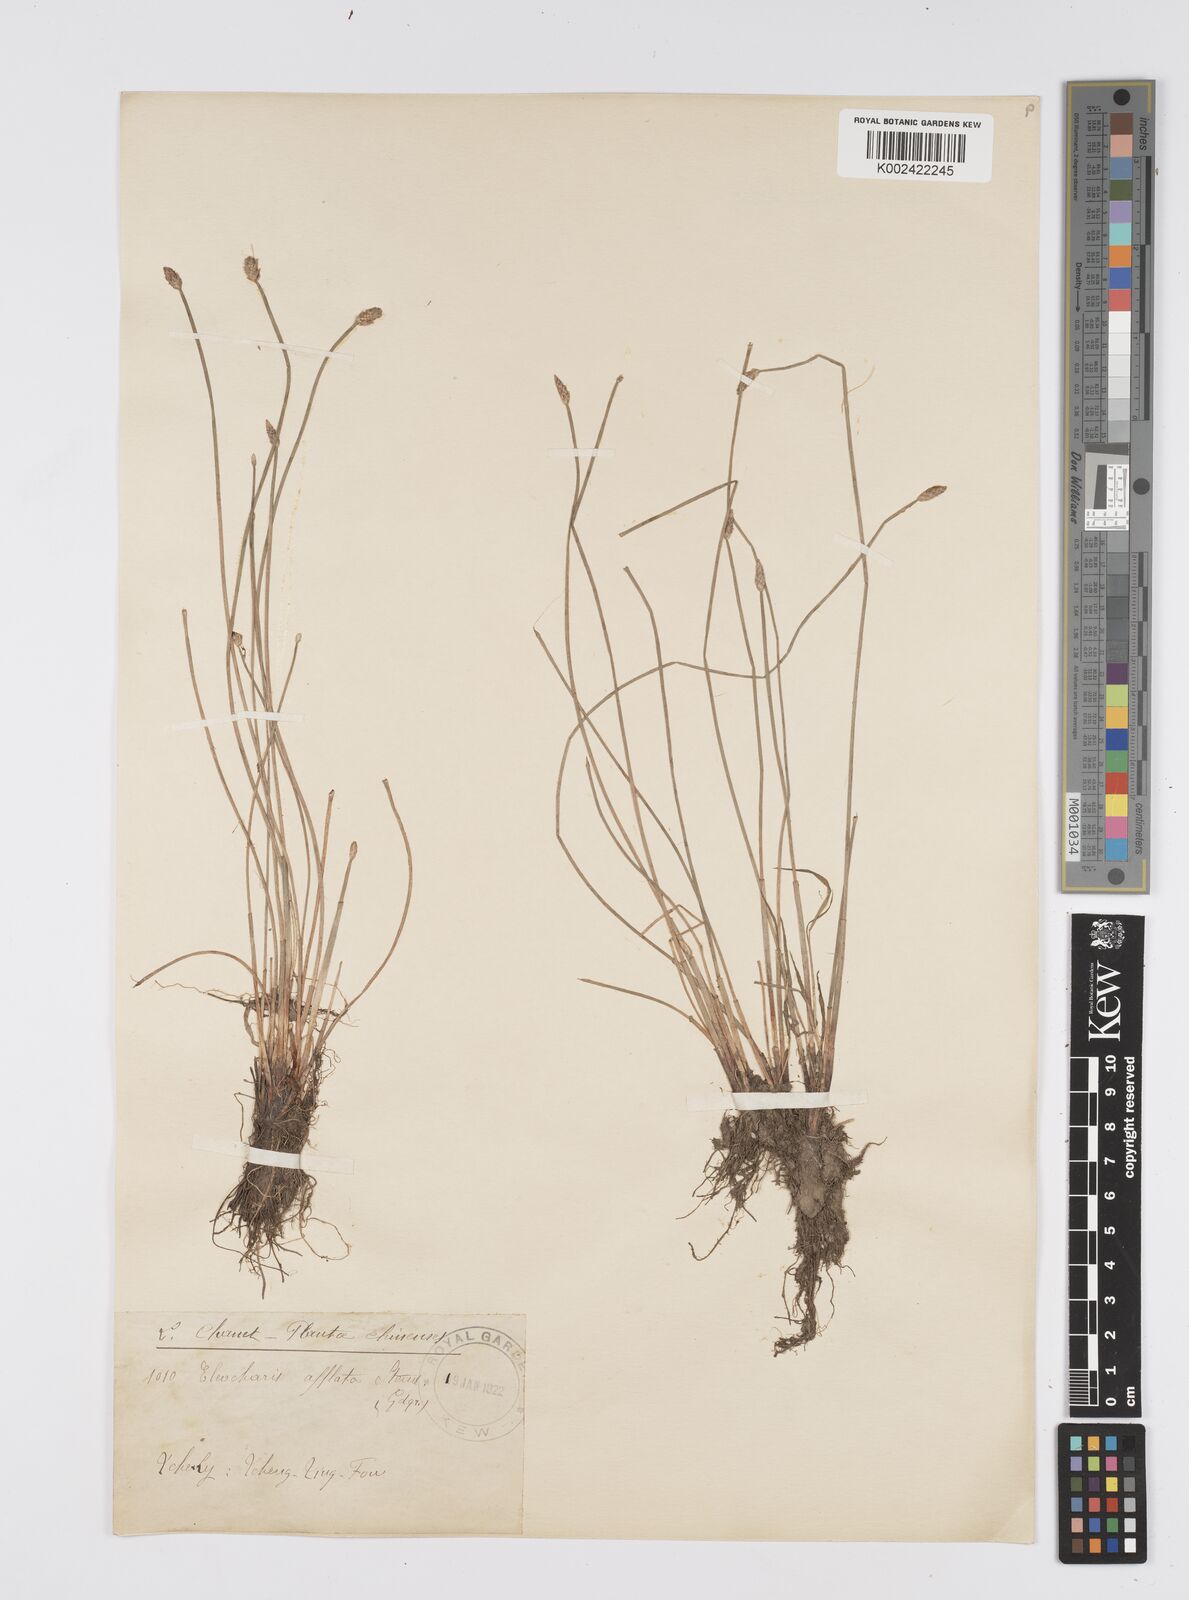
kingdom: Plantae
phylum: Tracheophyta
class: Liliopsida
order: Poales
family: Cyperaceae
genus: Eleocharis
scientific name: Eleocharis pellucida
